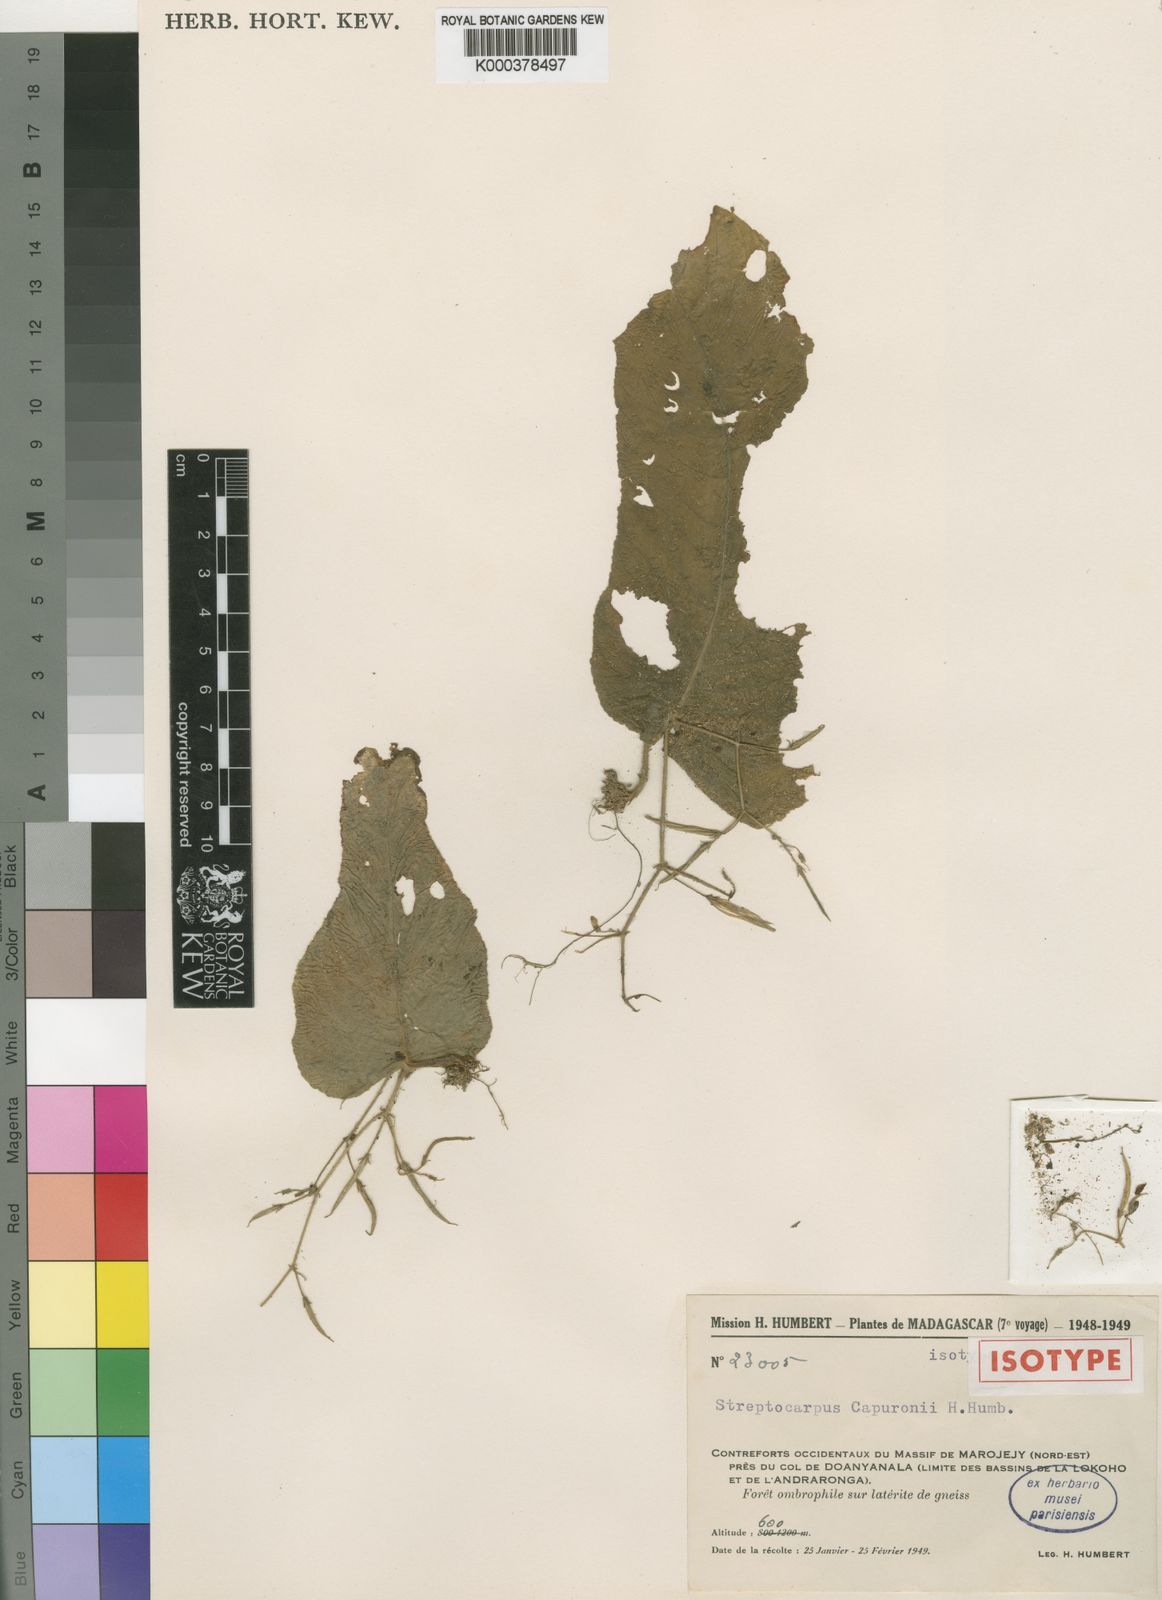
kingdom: Plantae
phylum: Tracheophyta
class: Magnoliopsida
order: Lamiales
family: Gesneriaceae
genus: Streptocarpus
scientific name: Streptocarpus capuronii
